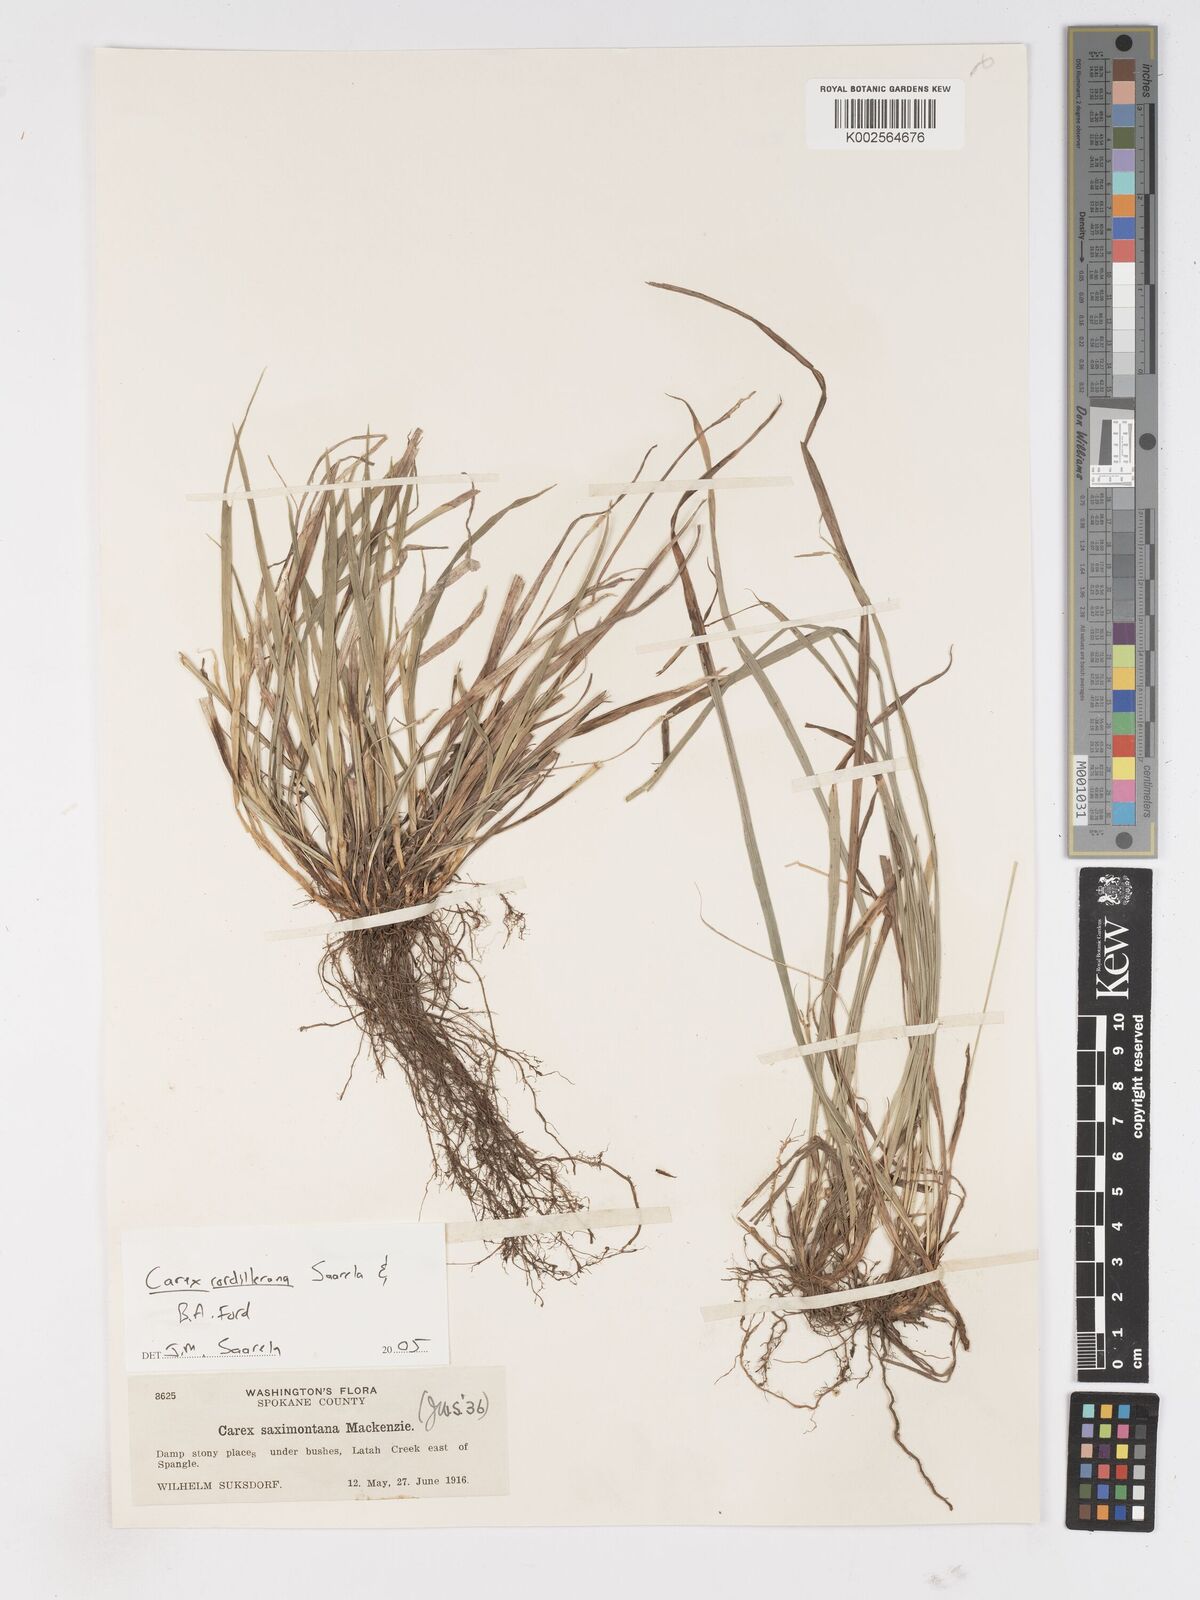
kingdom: Plantae
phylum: Tracheophyta
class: Liliopsida
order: Poales
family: Cyperaceae
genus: Carex
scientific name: Carex cordillerana
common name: Cordilleran sedge
